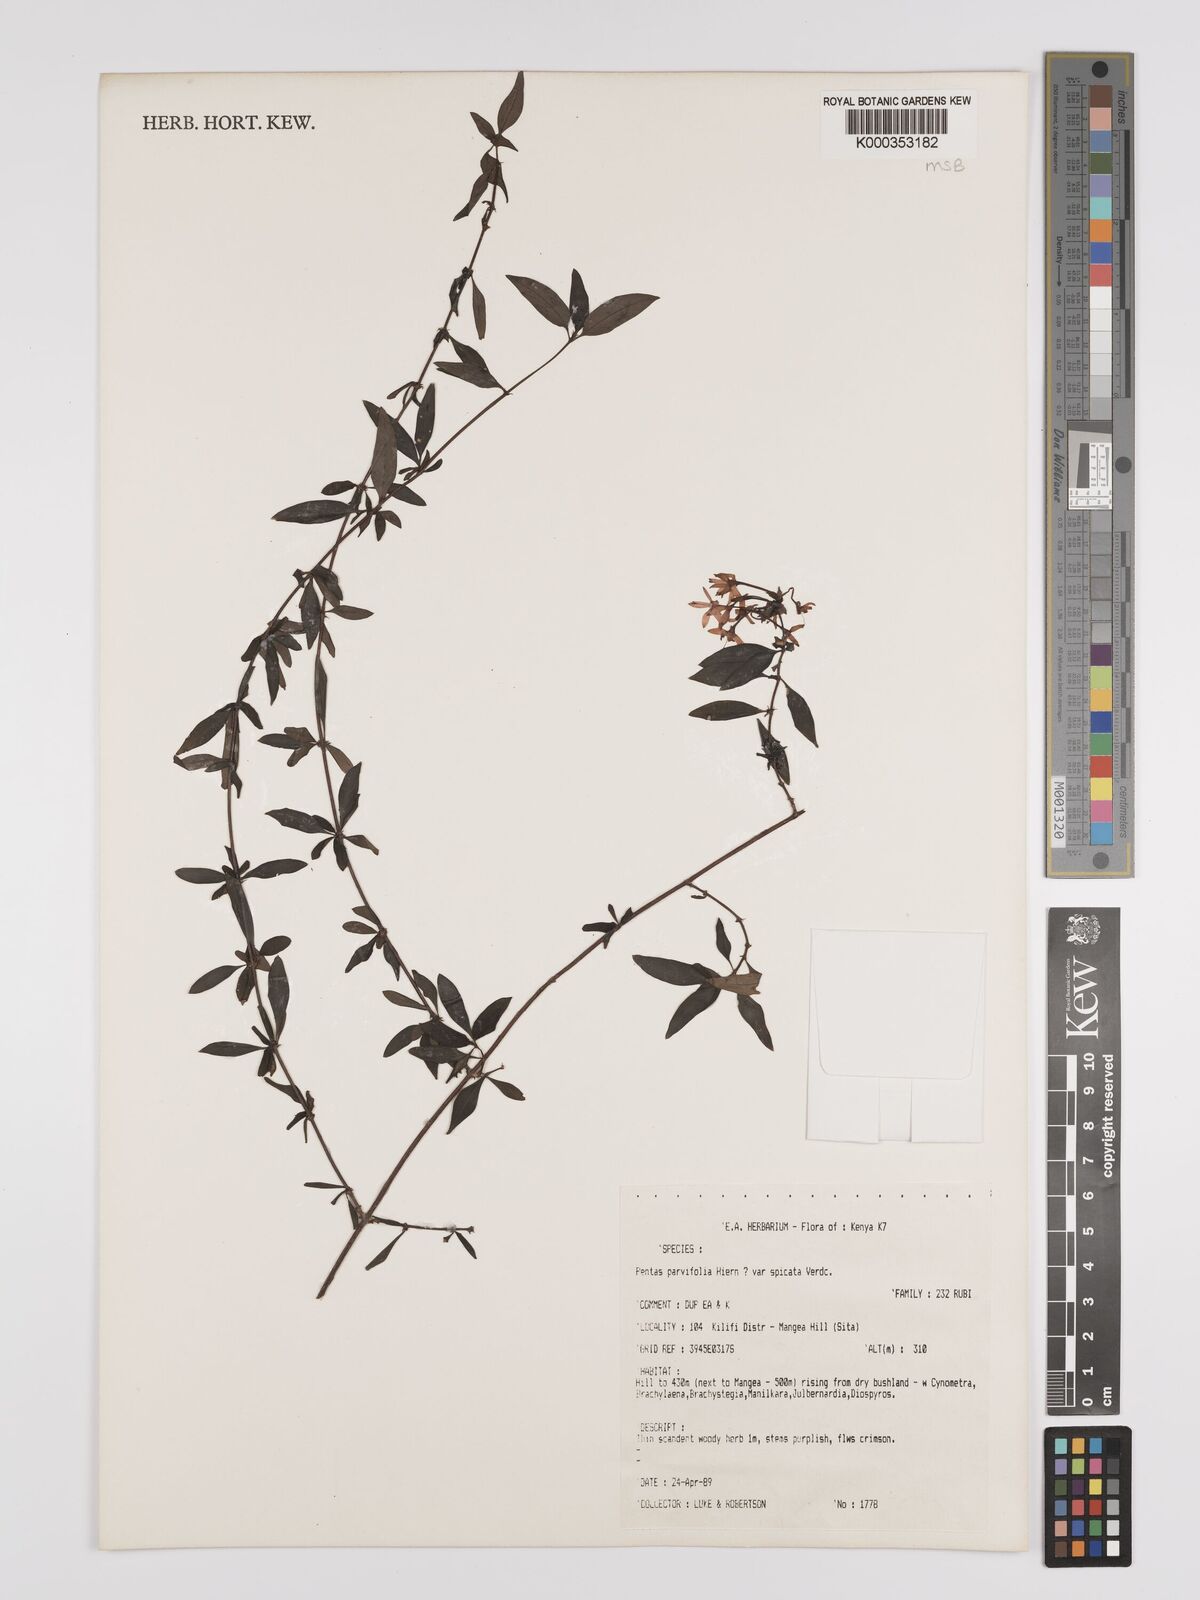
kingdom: Plantae
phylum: Tracheophyta
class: Magnoliopsida
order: Gentianales
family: Rubiaceae
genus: Rhodopentas
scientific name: Rhodopentas parvifolia
